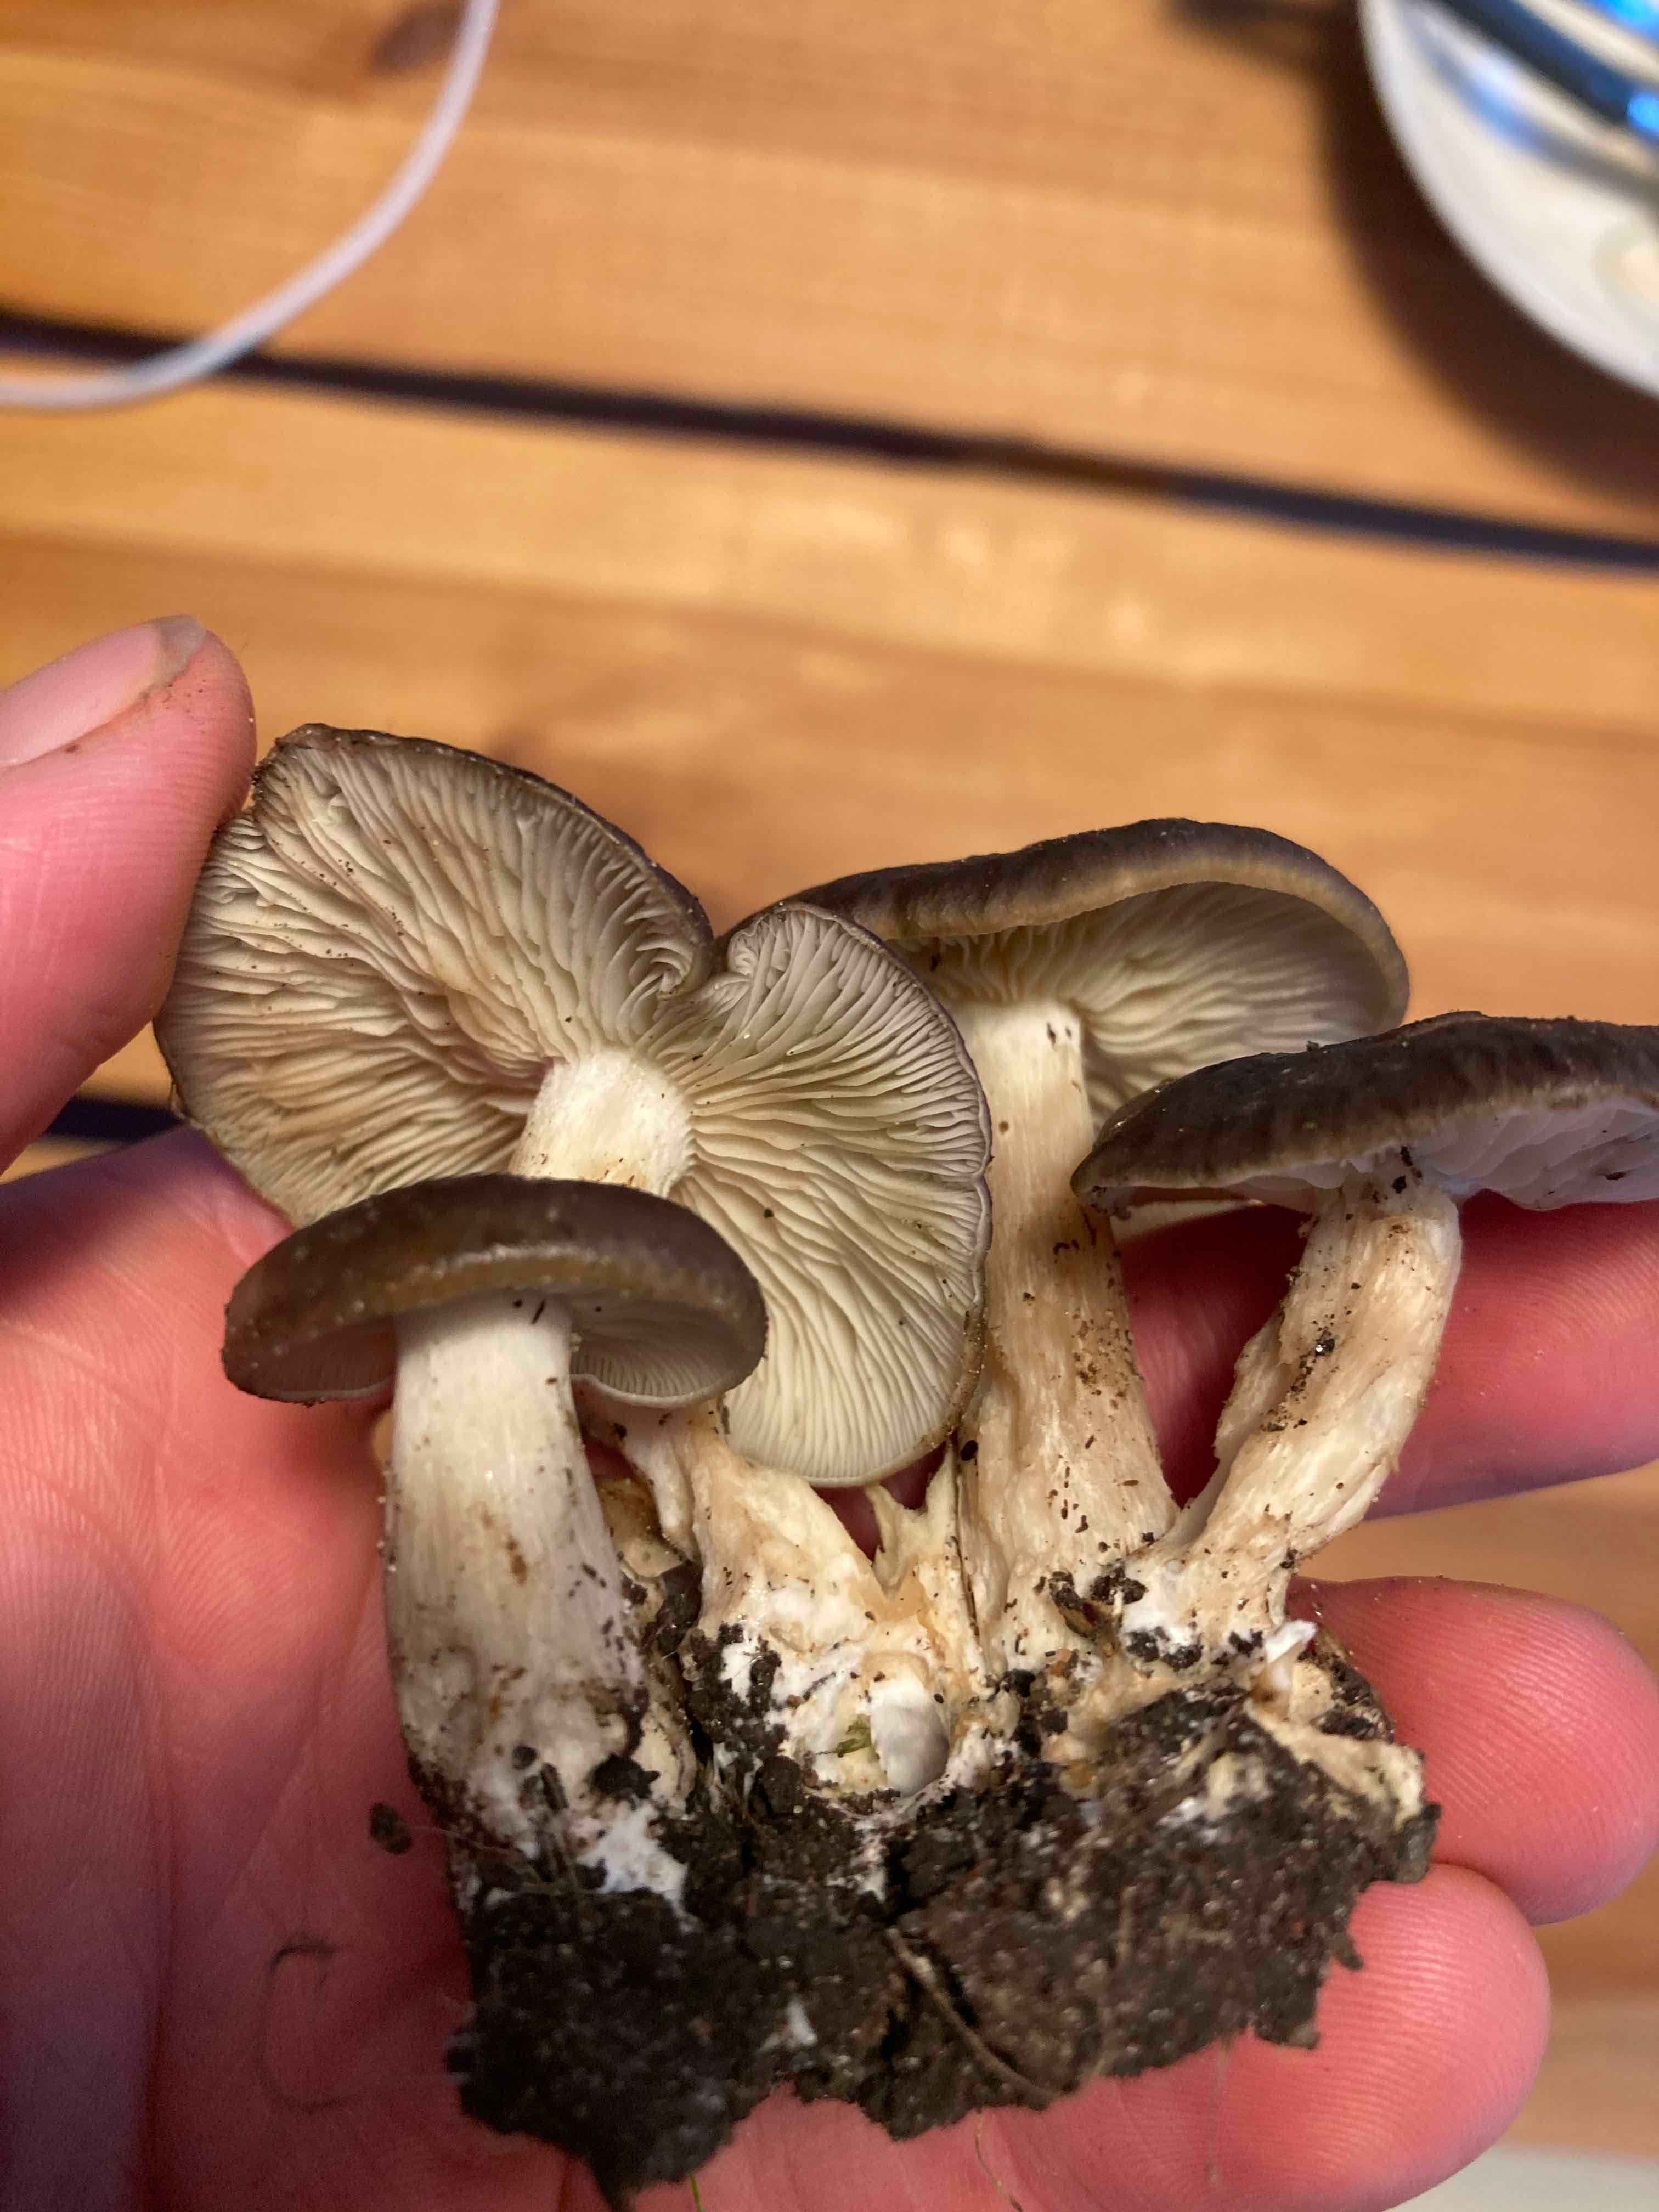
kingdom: Fungi
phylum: Basidiomycota
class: Agaricomycetes
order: Agaricales
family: Lyophyllaceae
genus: Lyophyllum
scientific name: Lyophyllum decastes
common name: røggrå gråblad
